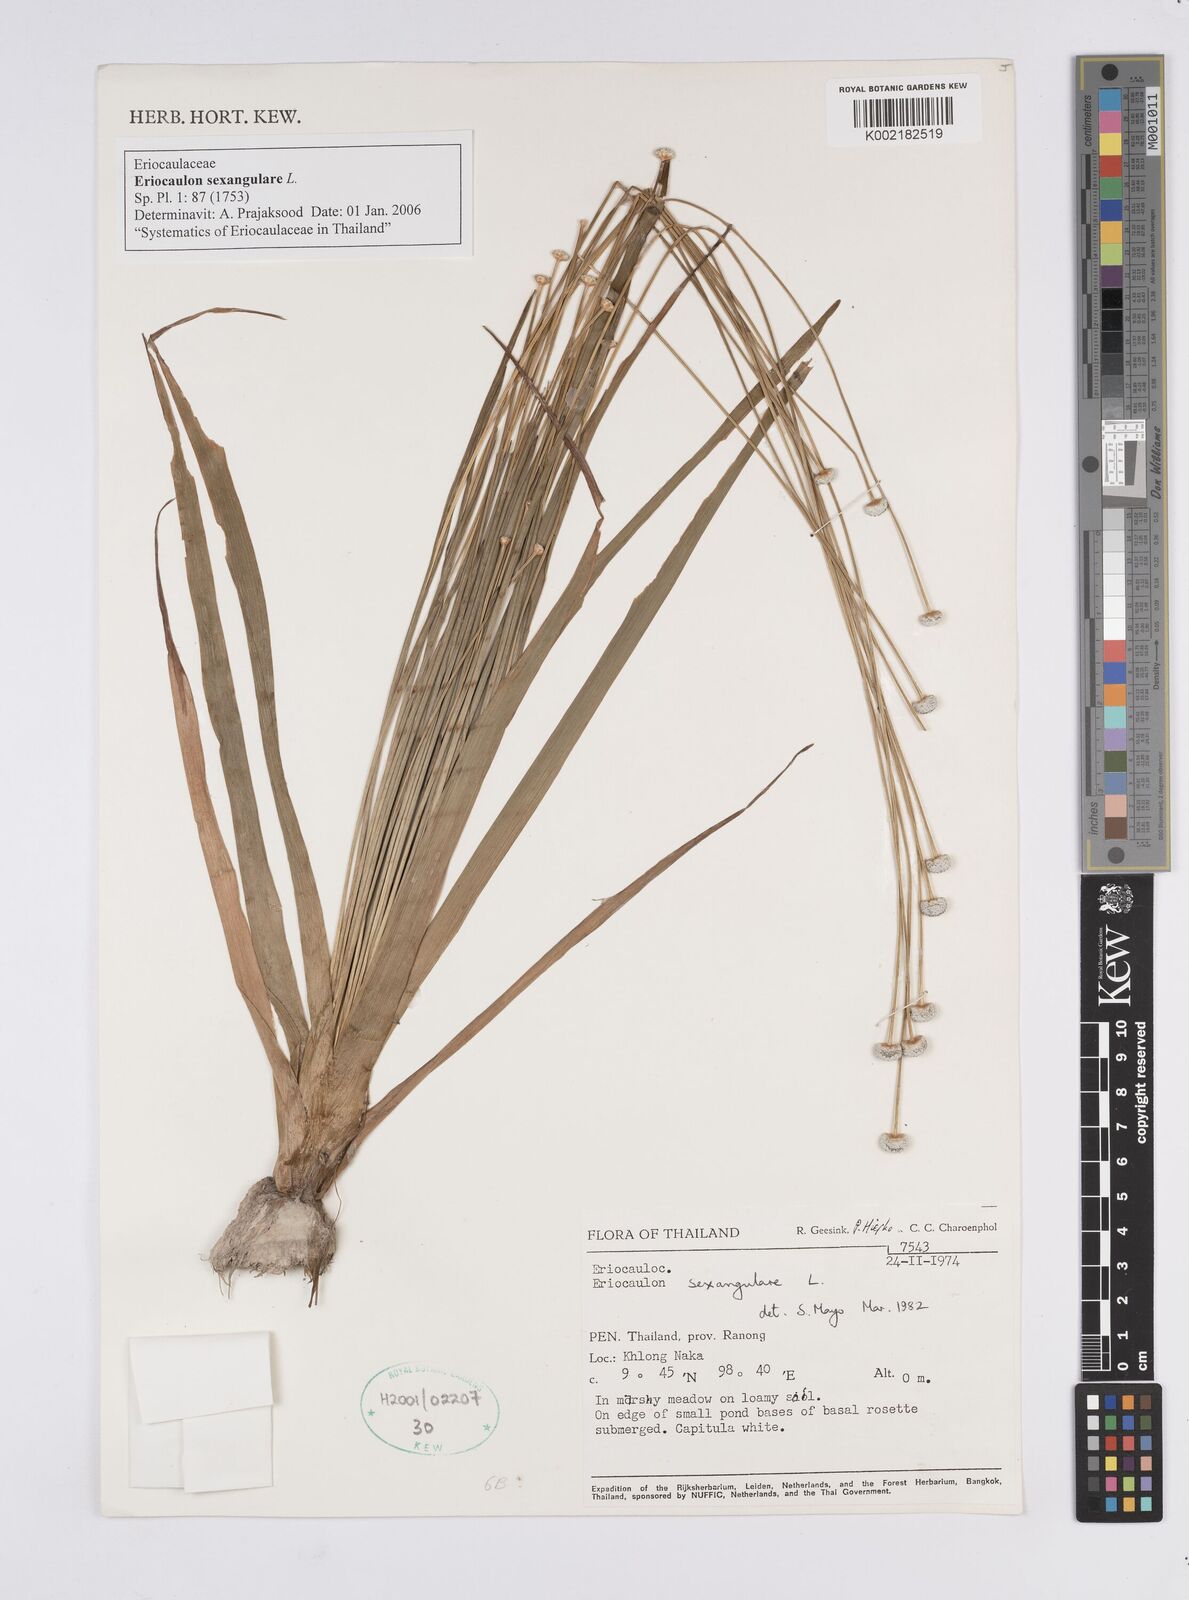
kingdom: Plantae
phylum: Tracheophyta
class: Liliopsida
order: Poales
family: Eriocaulaceae
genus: Eriocaulon
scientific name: Eriocaulon sexangulare
